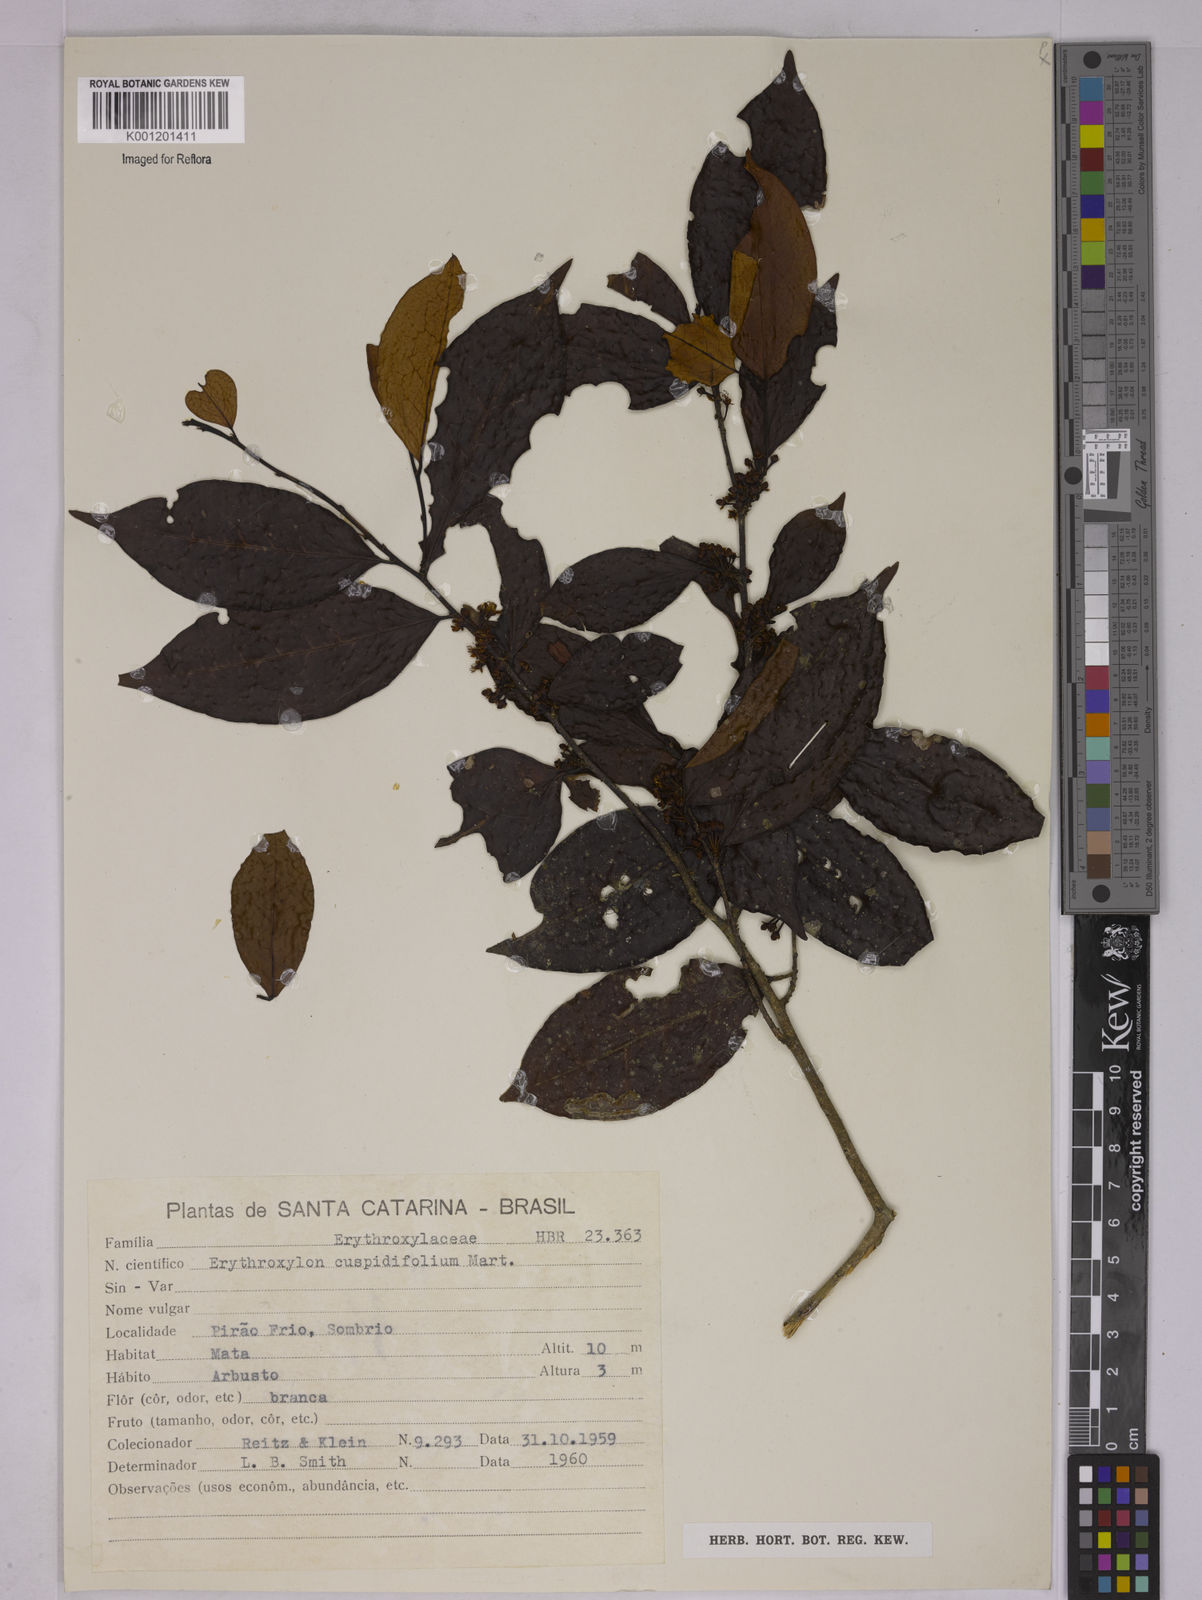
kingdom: Plantae
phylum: Tracheophyta
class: Magnoliopsida
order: Malpighiales
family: Erythroxylaceae
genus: Erythroxylum
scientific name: Erythroxylum cuspidifolium
